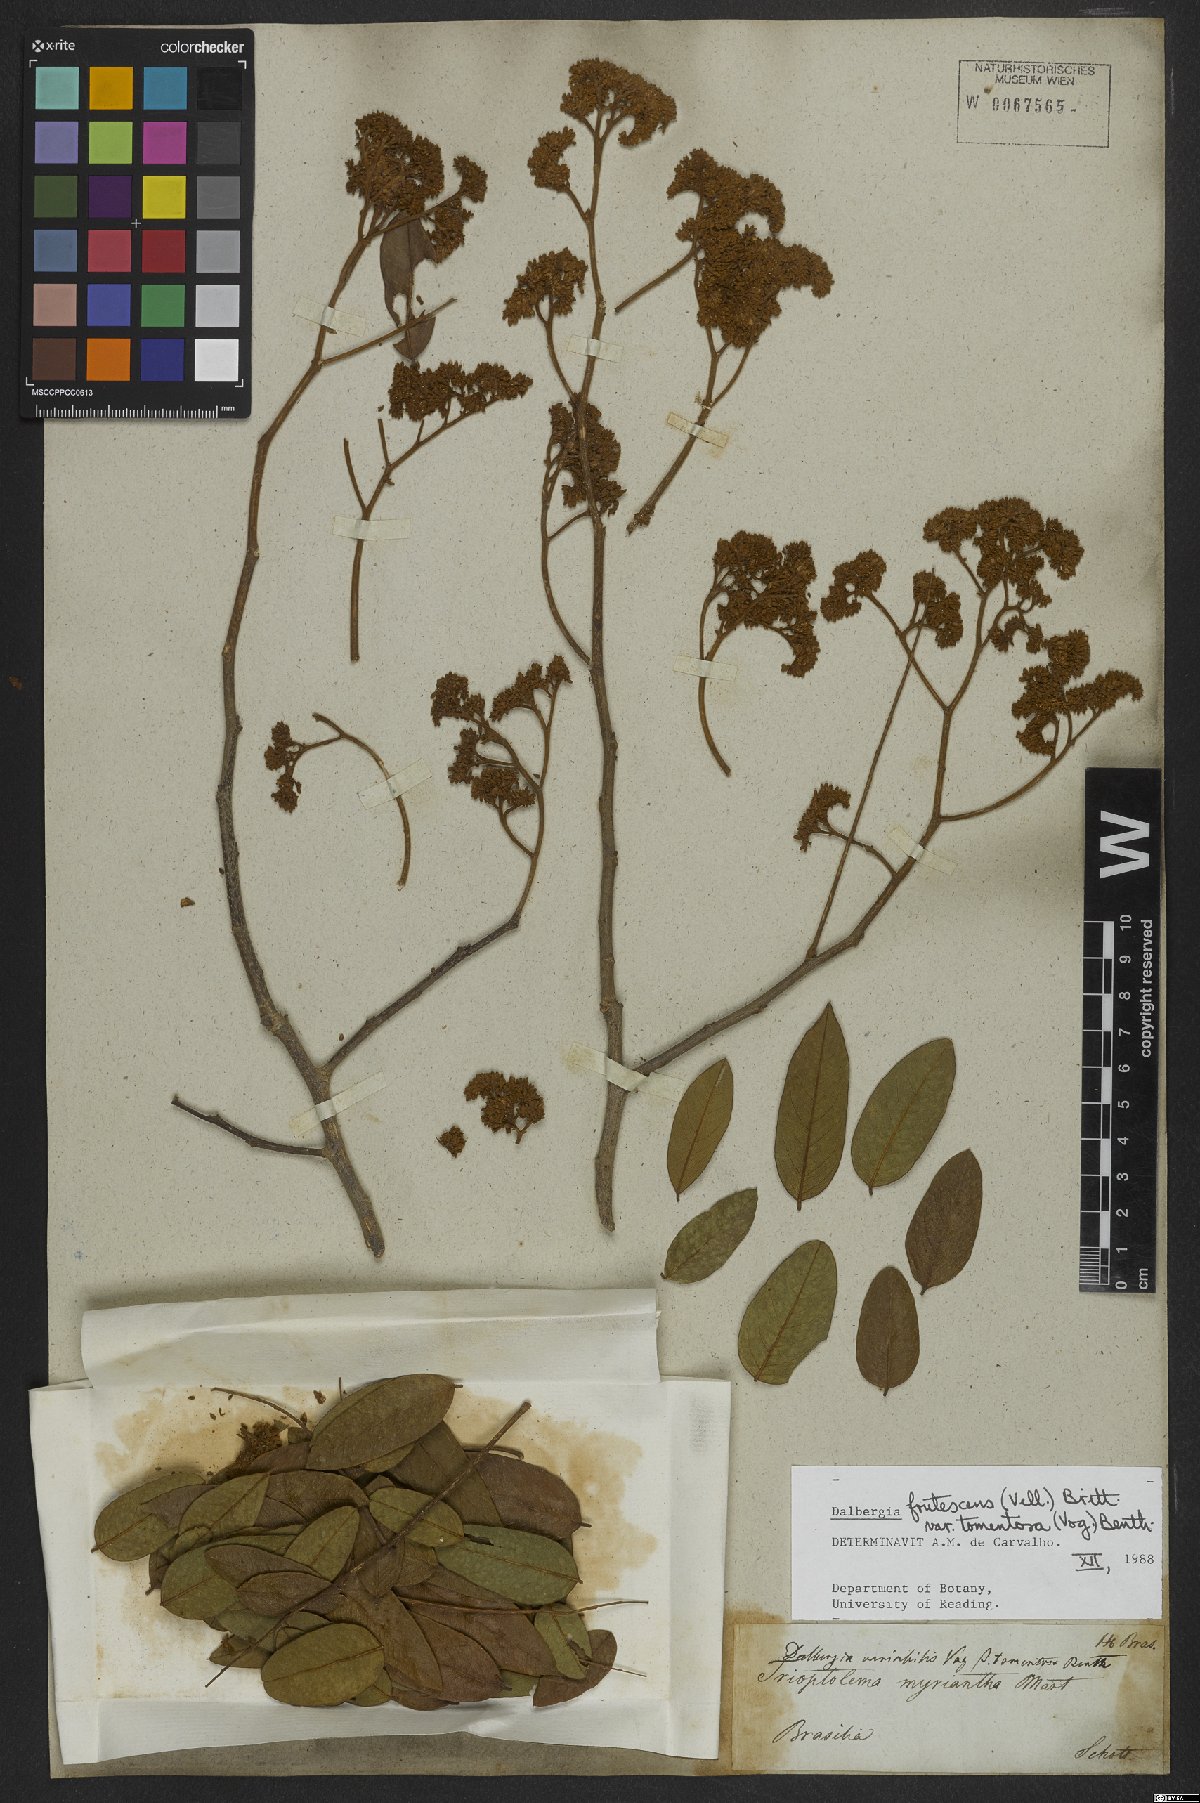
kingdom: Plantae
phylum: Tracheophyta
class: Magnoliopsida
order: Fabales
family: Fabaceae
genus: Dalbergia
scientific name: Dalbergia frutescens
